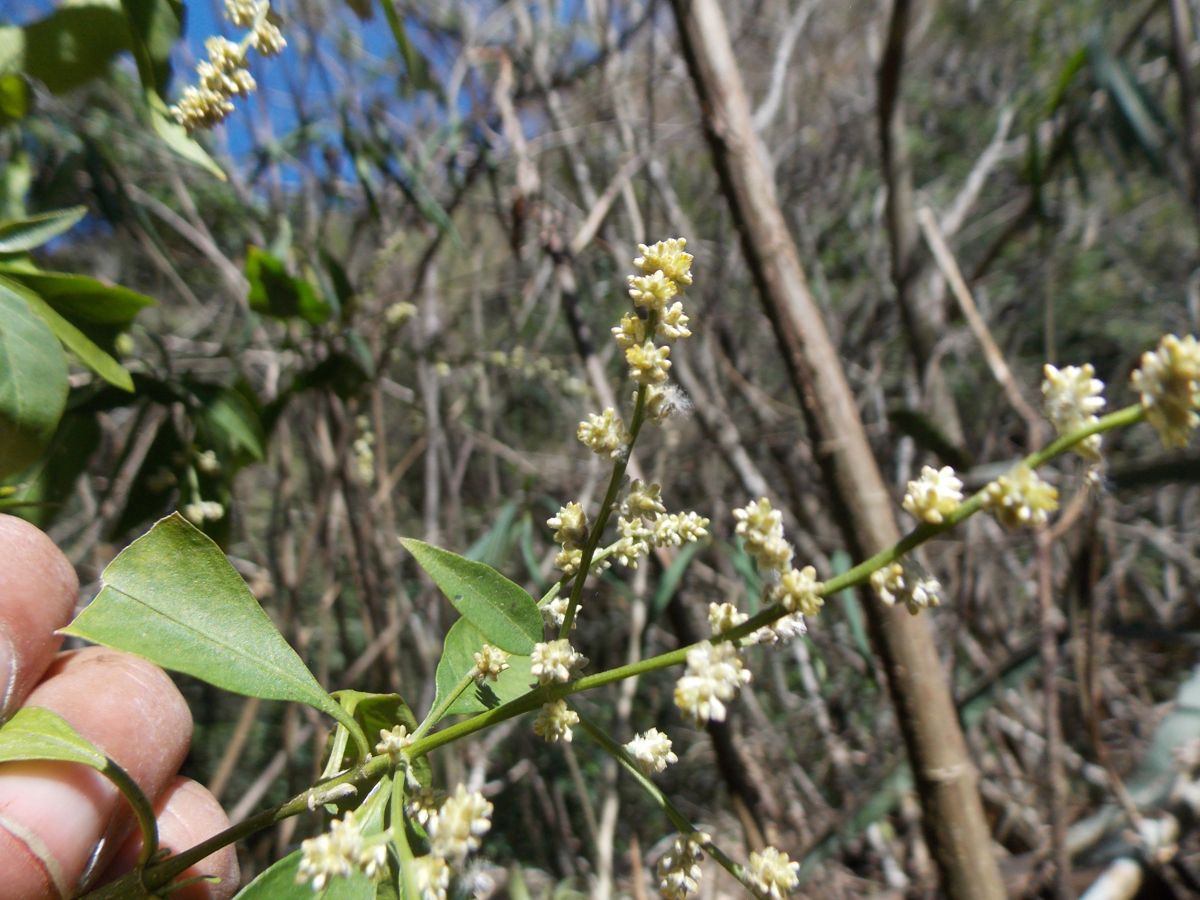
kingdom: Plantae
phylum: Tracheophyta
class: Magnoliopsida
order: Caryophyllales
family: Amaranthaceae
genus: Iresine
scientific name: Iresine nigra
